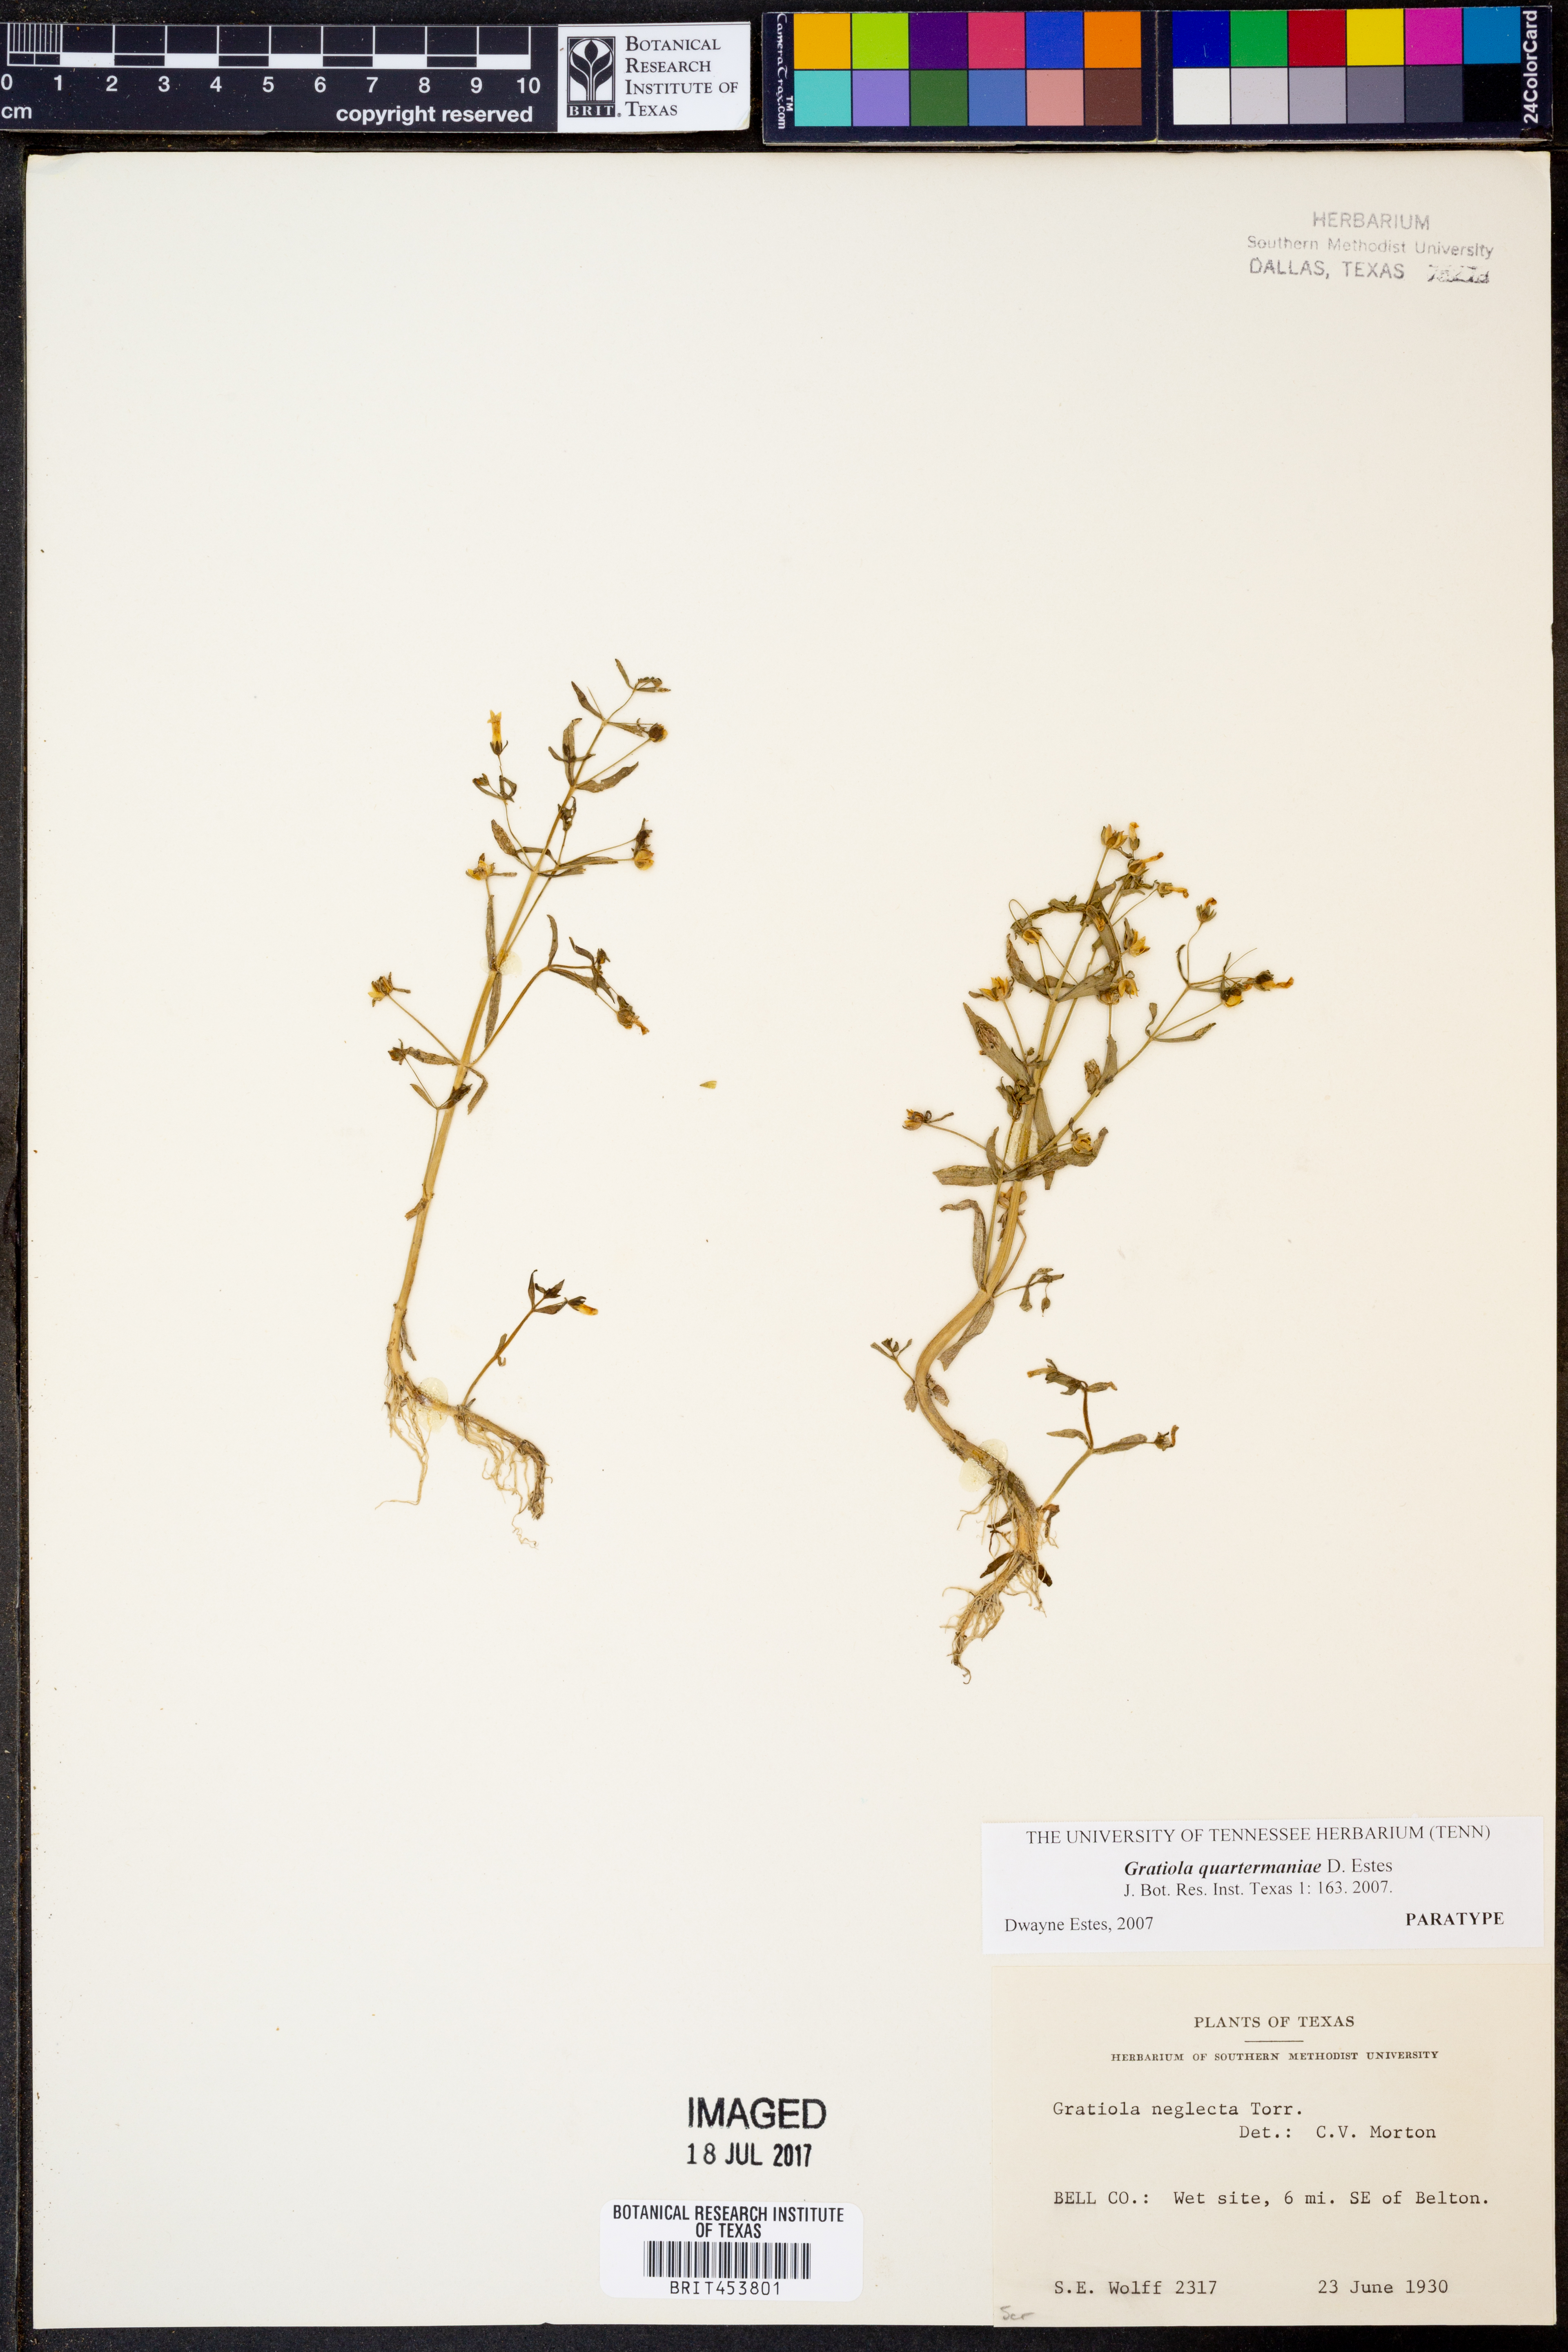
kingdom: Plantae
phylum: Tracheophyta
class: Magnoliopsida
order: Lamiales
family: Plantaginaceae
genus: Gratiola
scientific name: Gratiola quartermaniae
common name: Quarterman's hedge-hyssop
